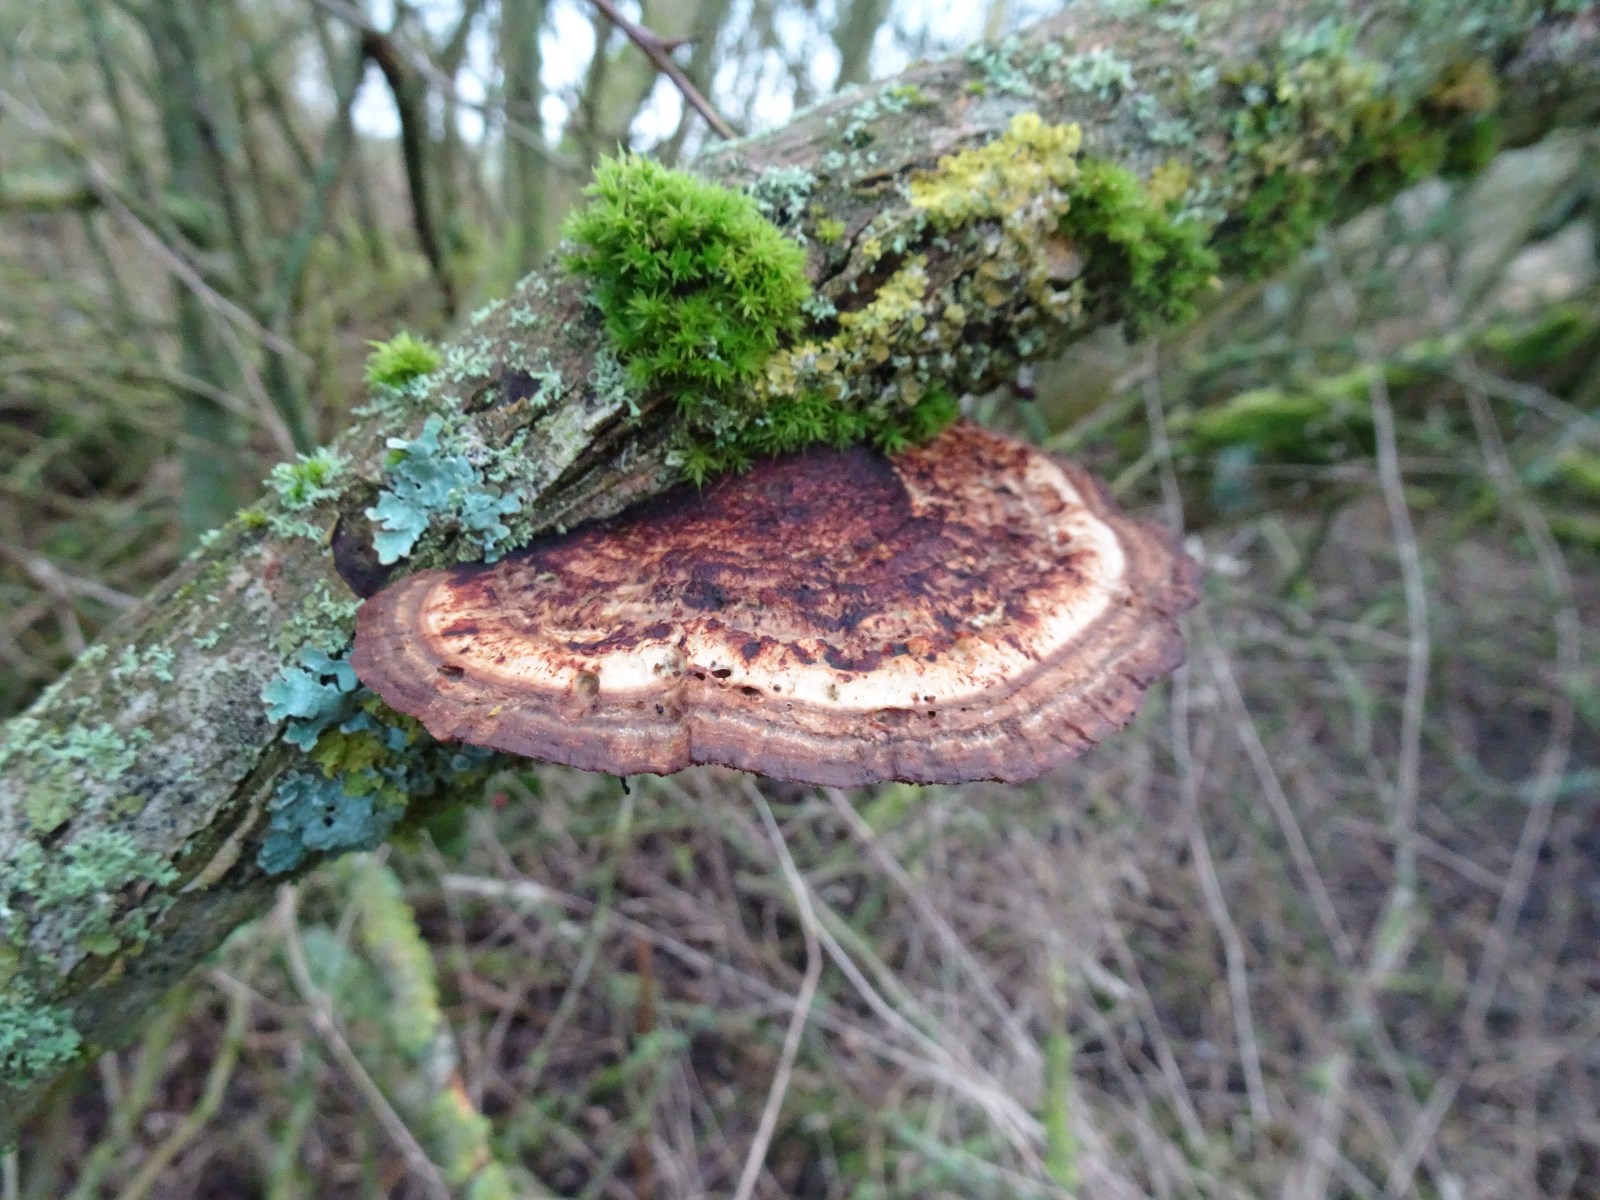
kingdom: Fungi
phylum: Basidiomycota
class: Agaricomycetes
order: Polyporales
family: Polyporaceae
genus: Daedaleopsis
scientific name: Daedaleopsis confragosa
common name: rødmende læderporesvamp
